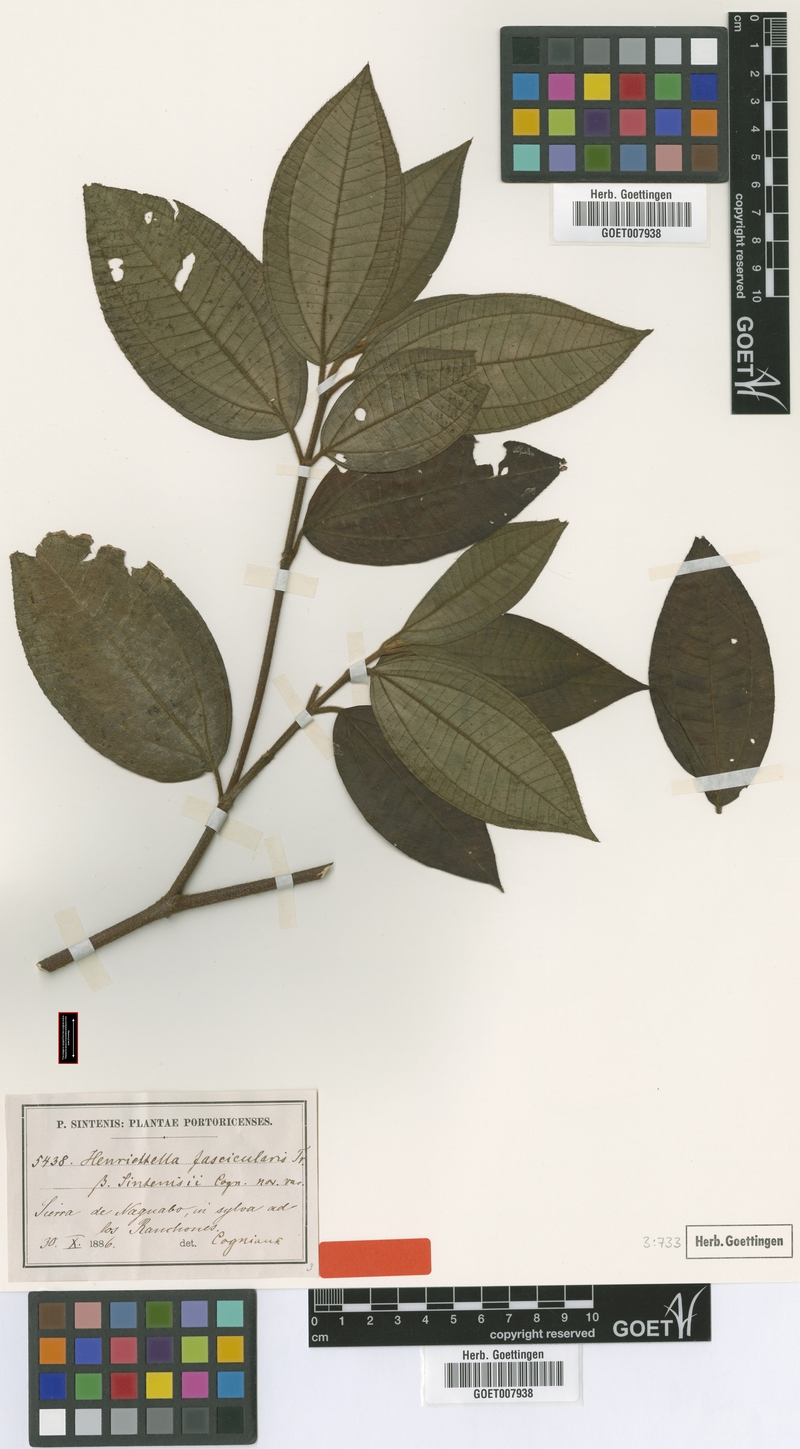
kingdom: Plantae
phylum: Tracheophyta
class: Magnoliopsida
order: Myrtales
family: Melastomataceae
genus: Henriettea
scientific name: Henriettea fascicularis
